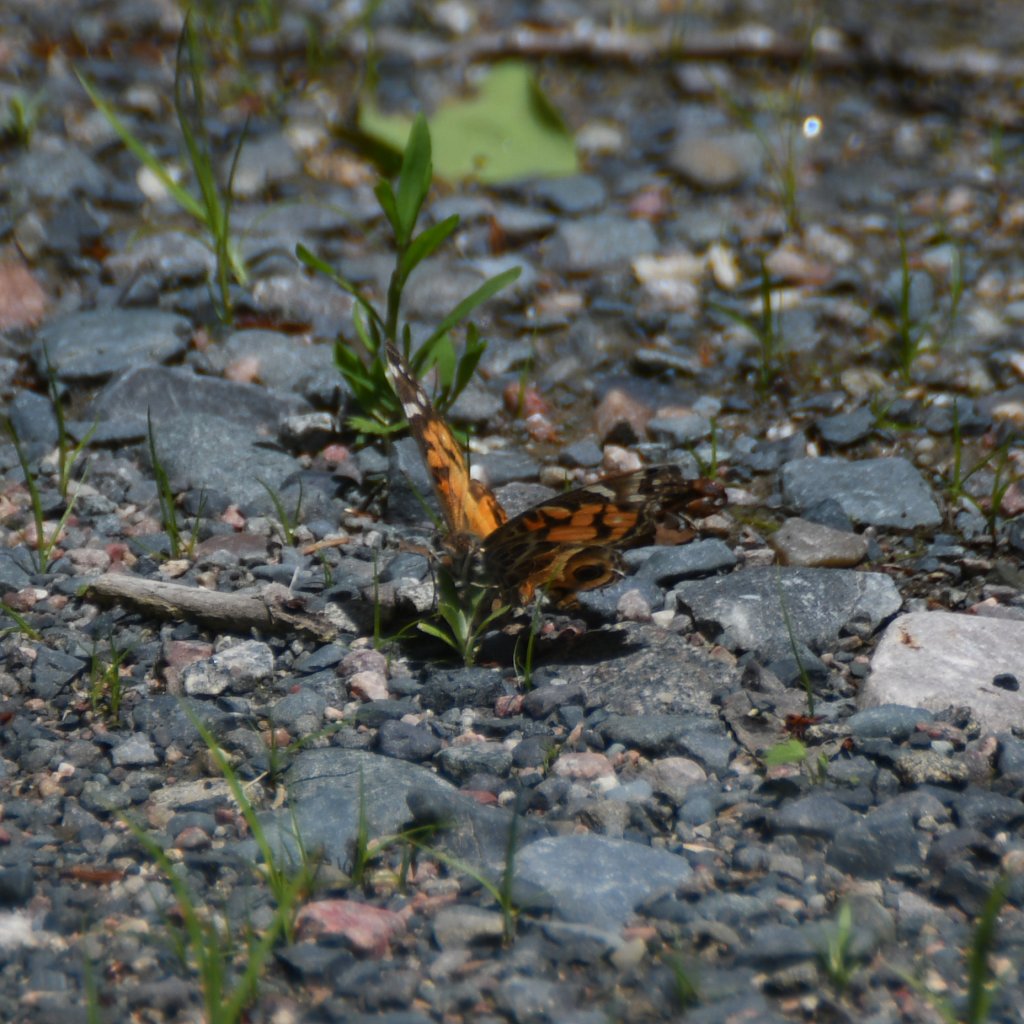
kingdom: Animalia
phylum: Arthropoda
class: Insecta
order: Lepidoptera
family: Nymphalidae
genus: Vanessa
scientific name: Vanessa virginiensis
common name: American Lady
